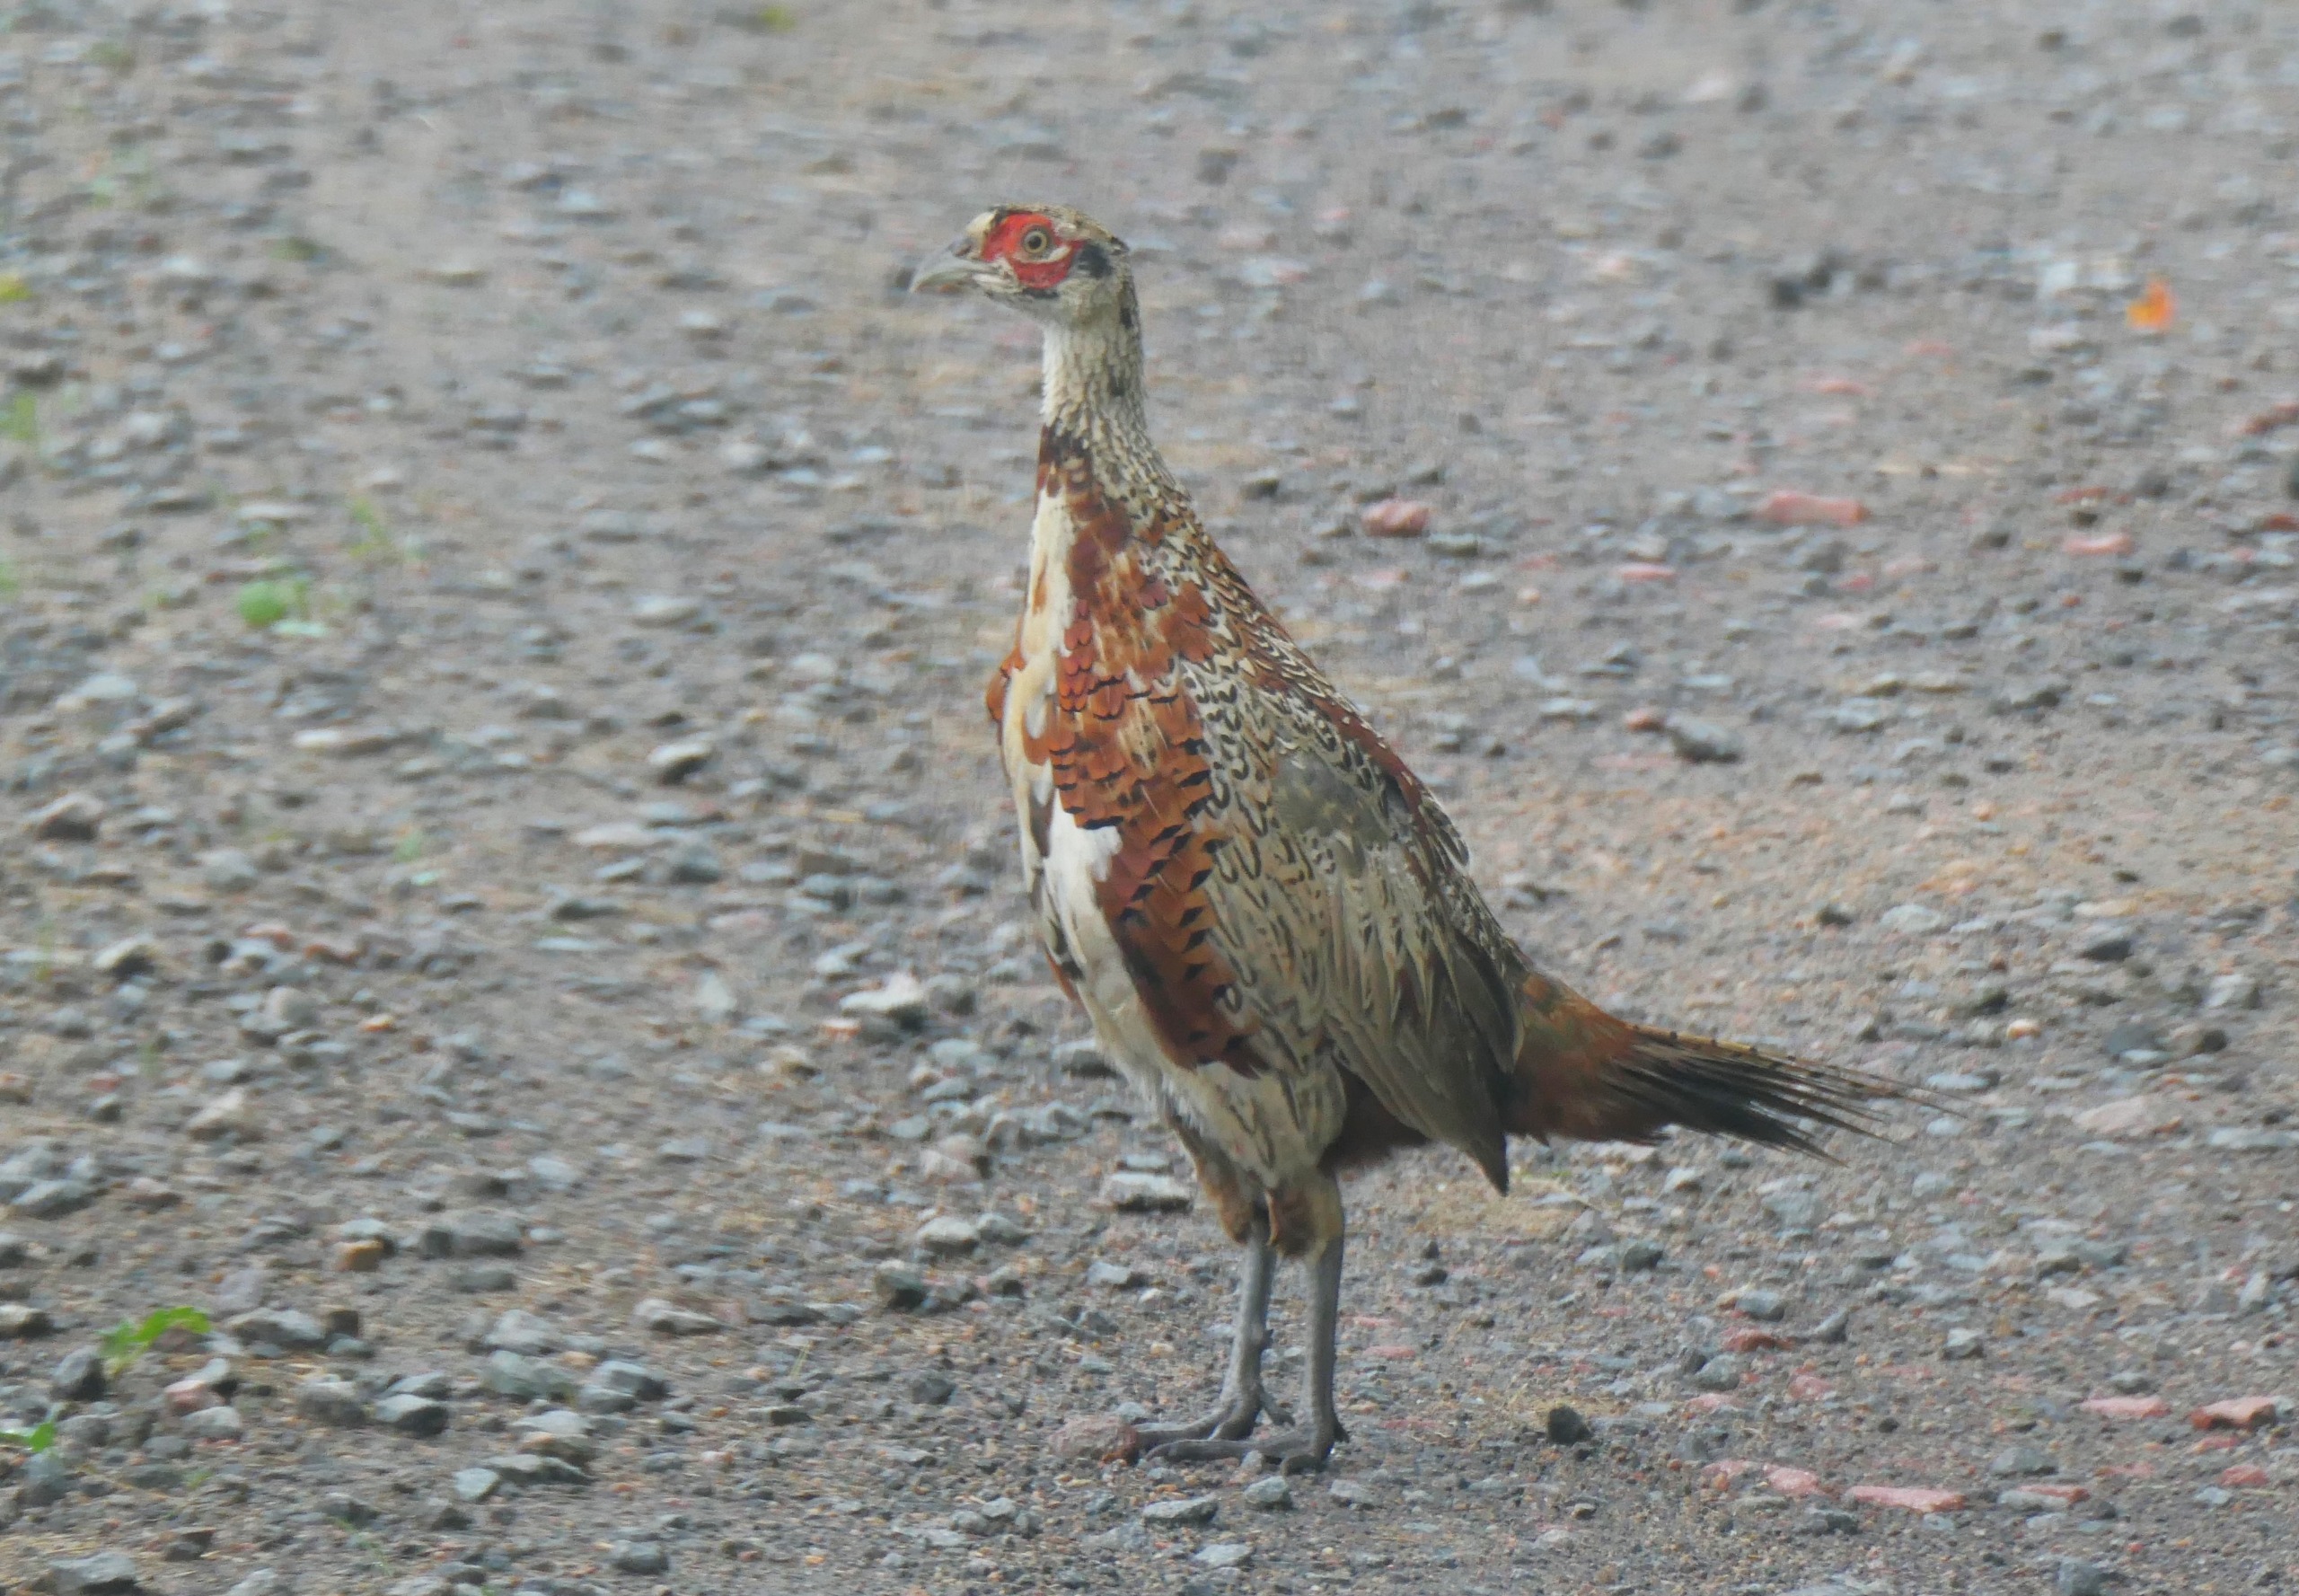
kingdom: Animalia
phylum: Chordata
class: Aves
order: Galliformes
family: Phasianidae
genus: Phasianus
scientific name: Phasianus colchicus
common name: Fasan
